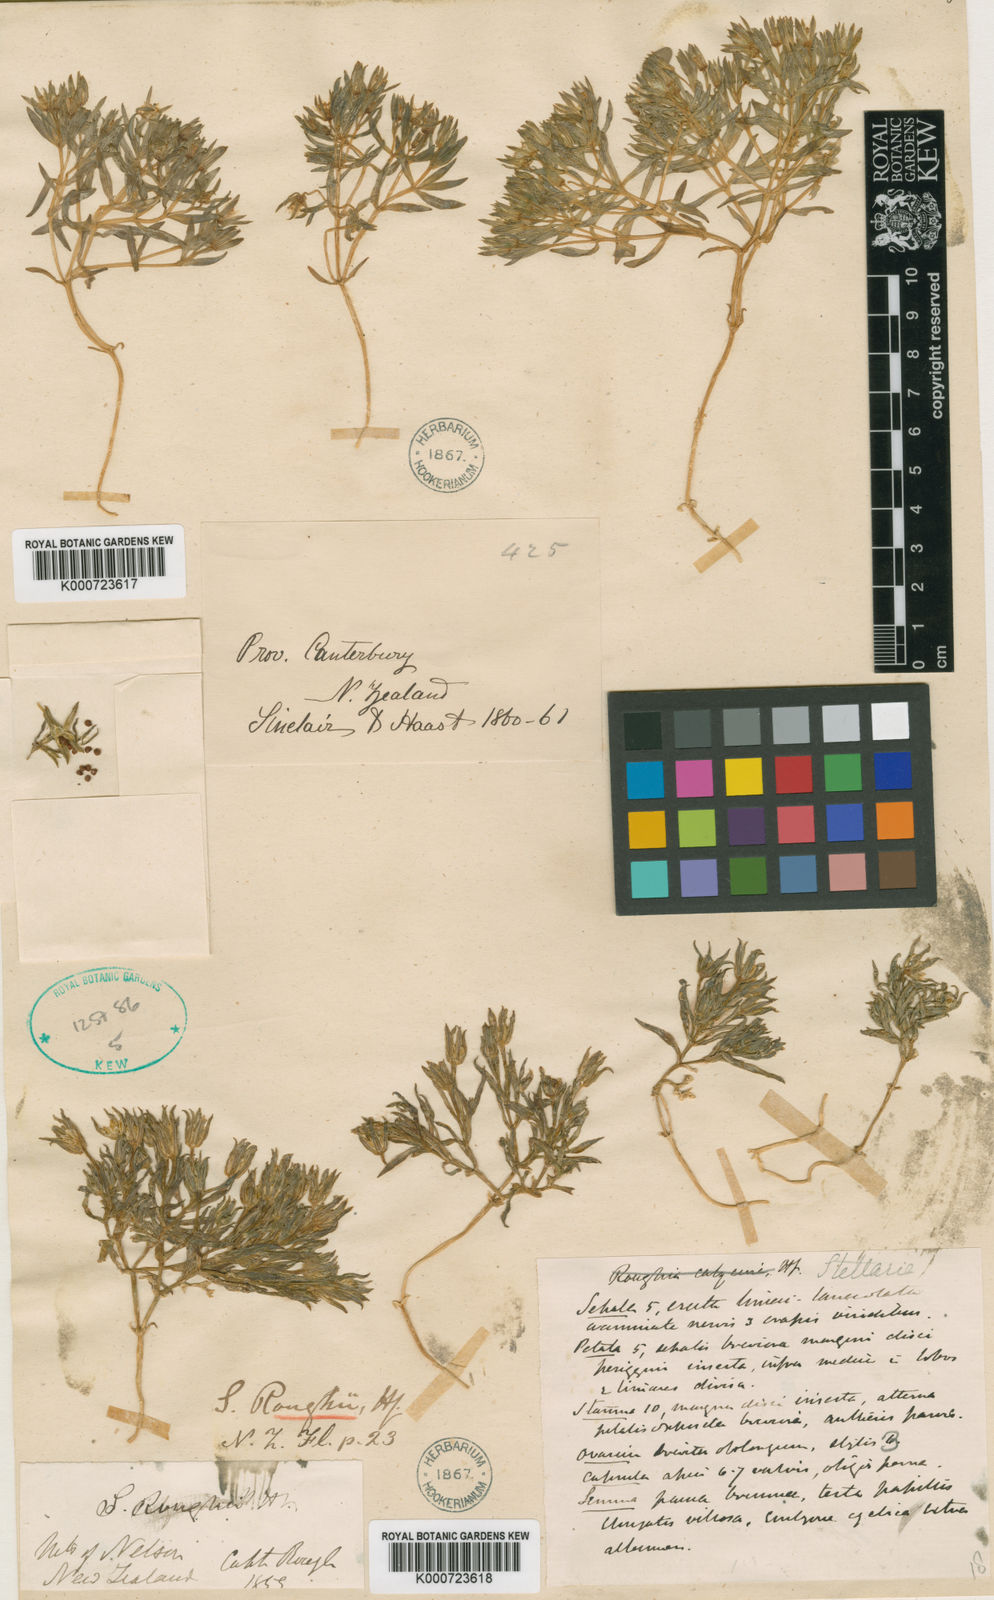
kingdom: Plantae
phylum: Tracheophyta
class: Magnoliopsida
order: Caryophyllales
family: Caryophyllaceae
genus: Stellaria
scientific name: Stellaria roughii
